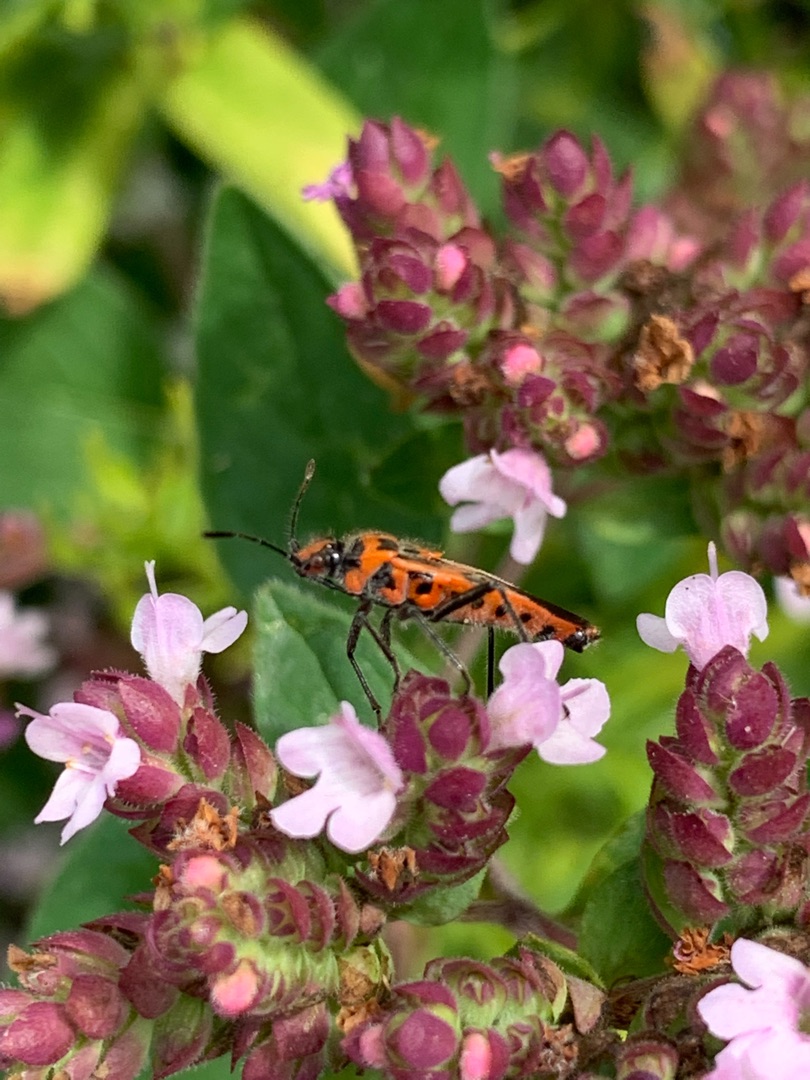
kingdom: Animalia
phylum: Arthropoda
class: Insecta
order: Hemiptera
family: Rhopalidae
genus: Corizus
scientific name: Corizus hyoscyami
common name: Rød kanttæge
